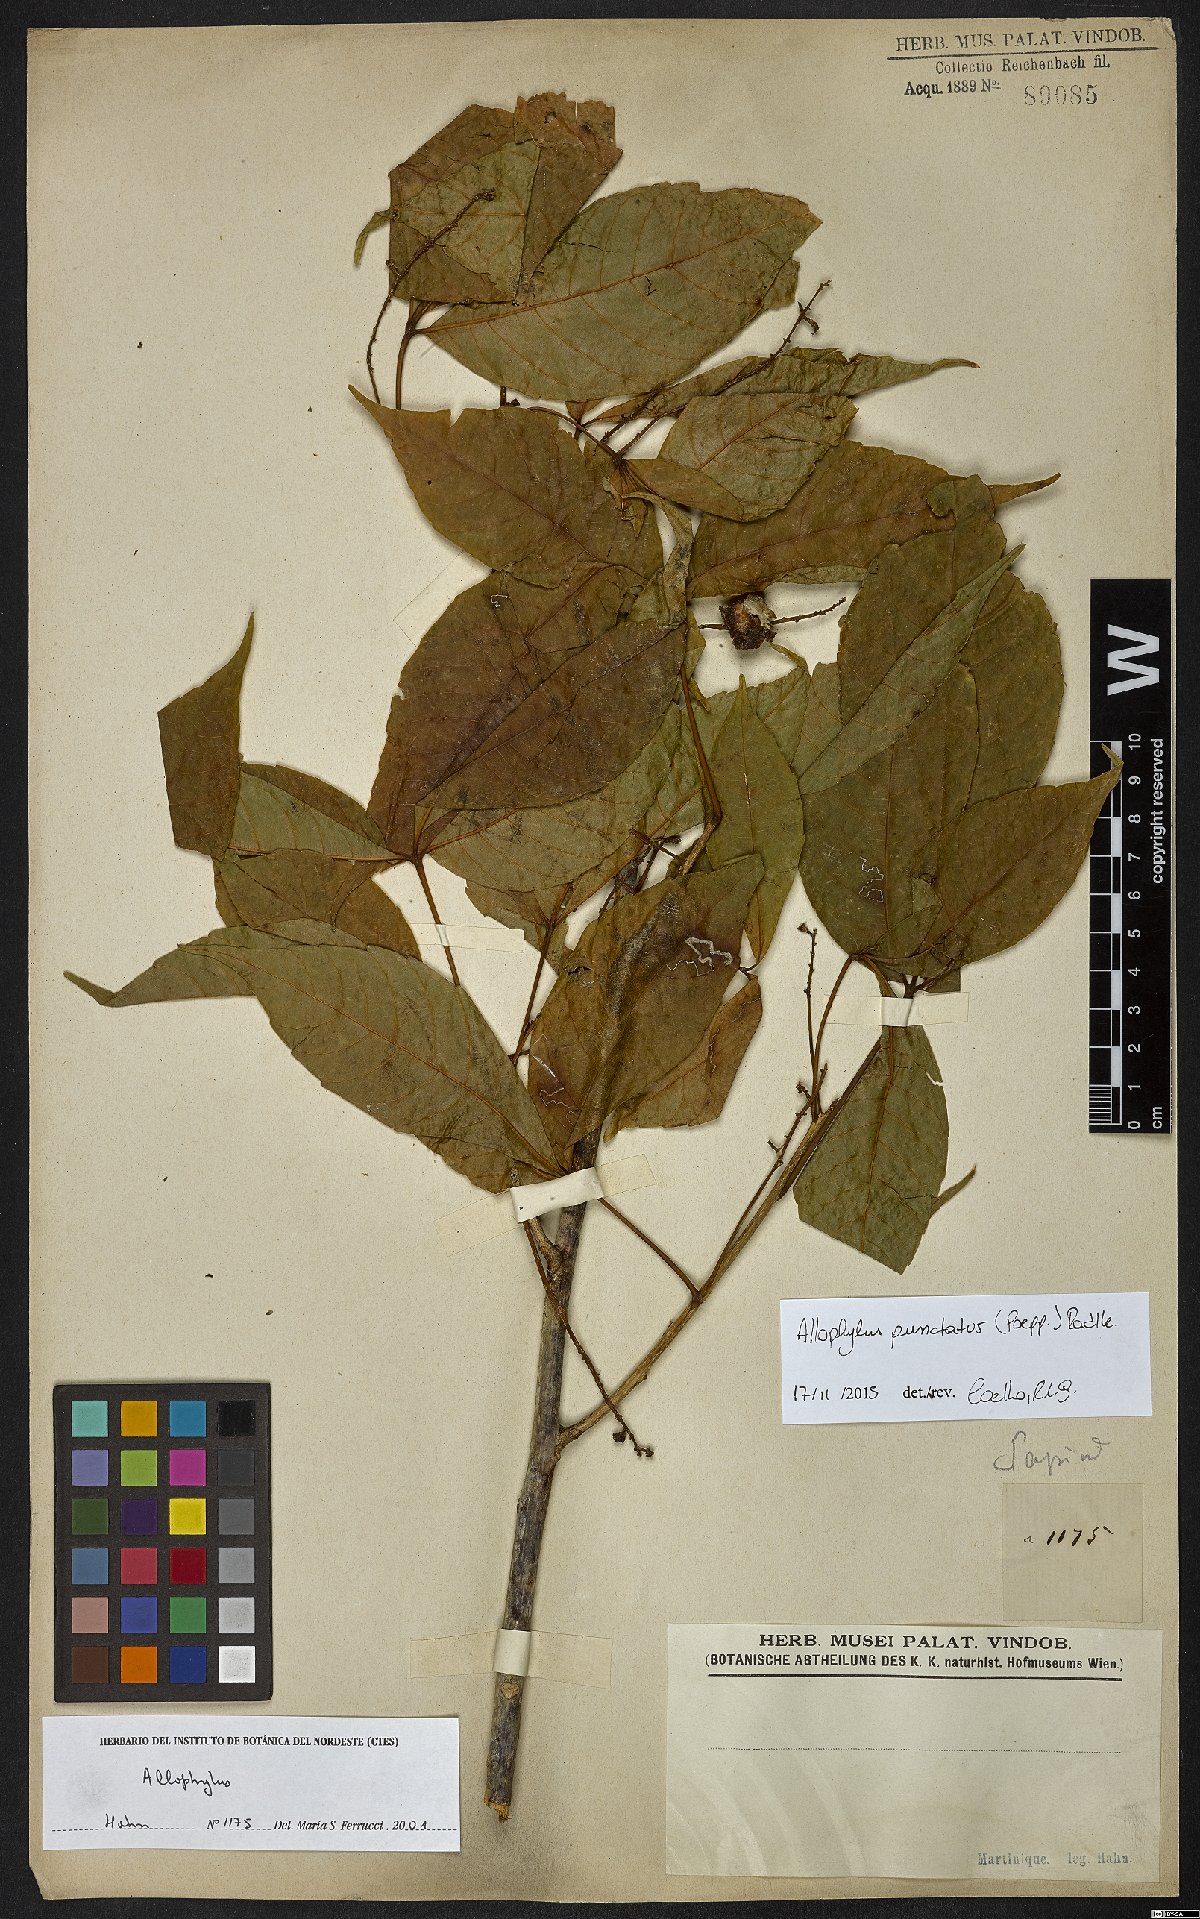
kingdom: Plantae
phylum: Tracheophyta
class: Magnoliopsida
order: Sapindales
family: Sapindaceae
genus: Allophylus
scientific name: Allophylus punctatus
